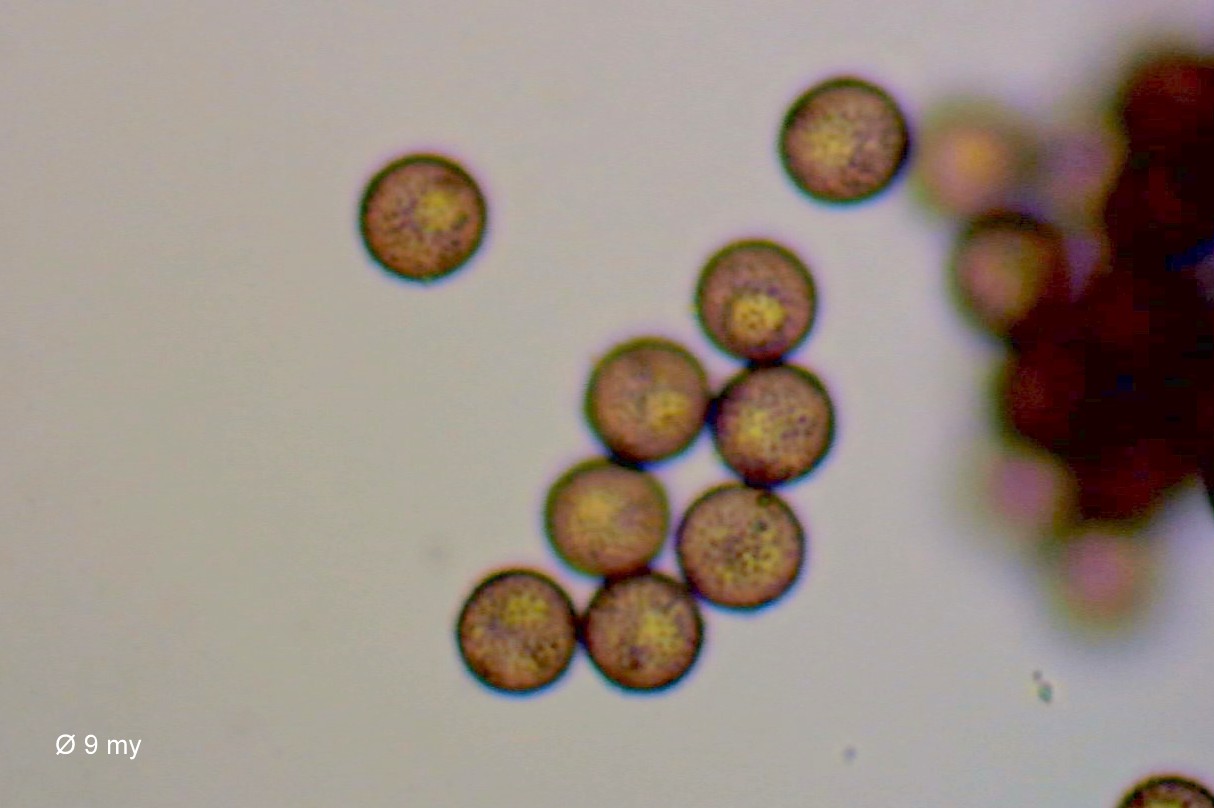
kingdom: Protozoa
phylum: Mycetozoa
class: Myxomycetes
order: Physarales
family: Didymiaceae
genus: Didymium
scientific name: Didymium squamulosum
